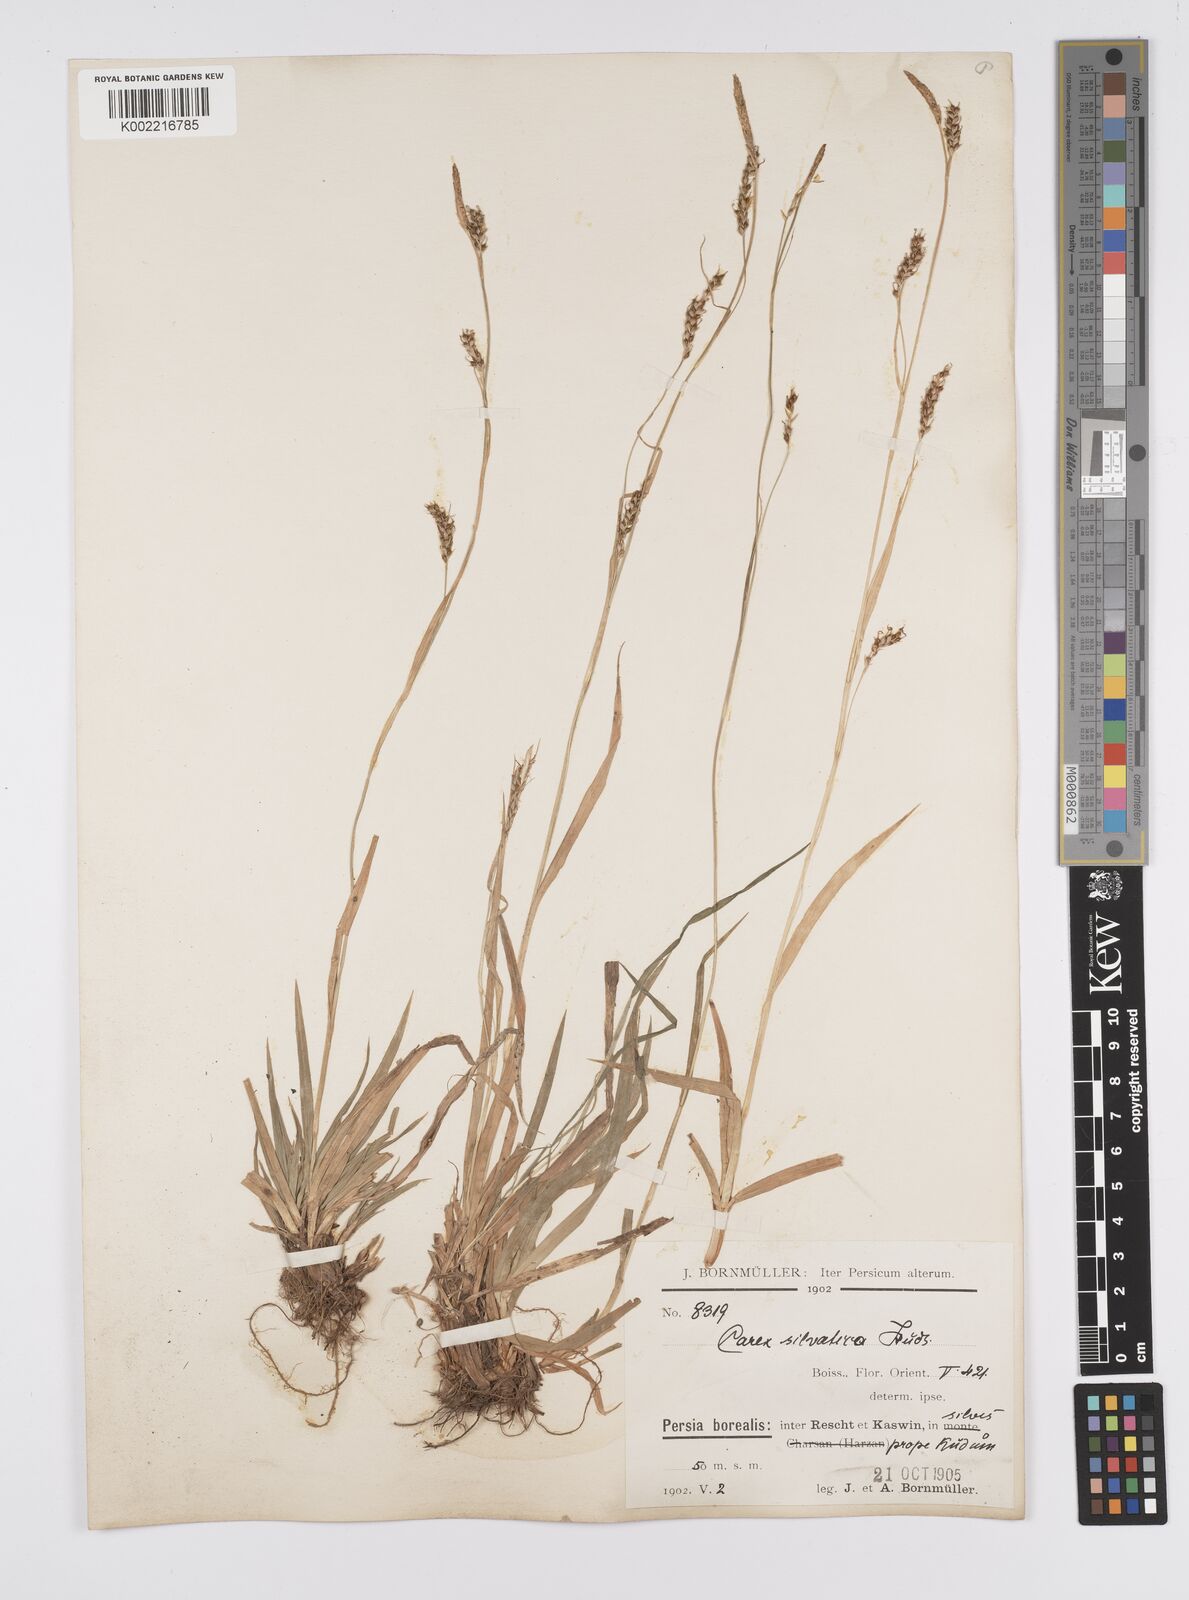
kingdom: Plantae
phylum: Tracheophyta
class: Liliopsida
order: Poales
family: Cyperaceae
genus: Carex
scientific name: Carex sylvatica
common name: Wood-sedge
